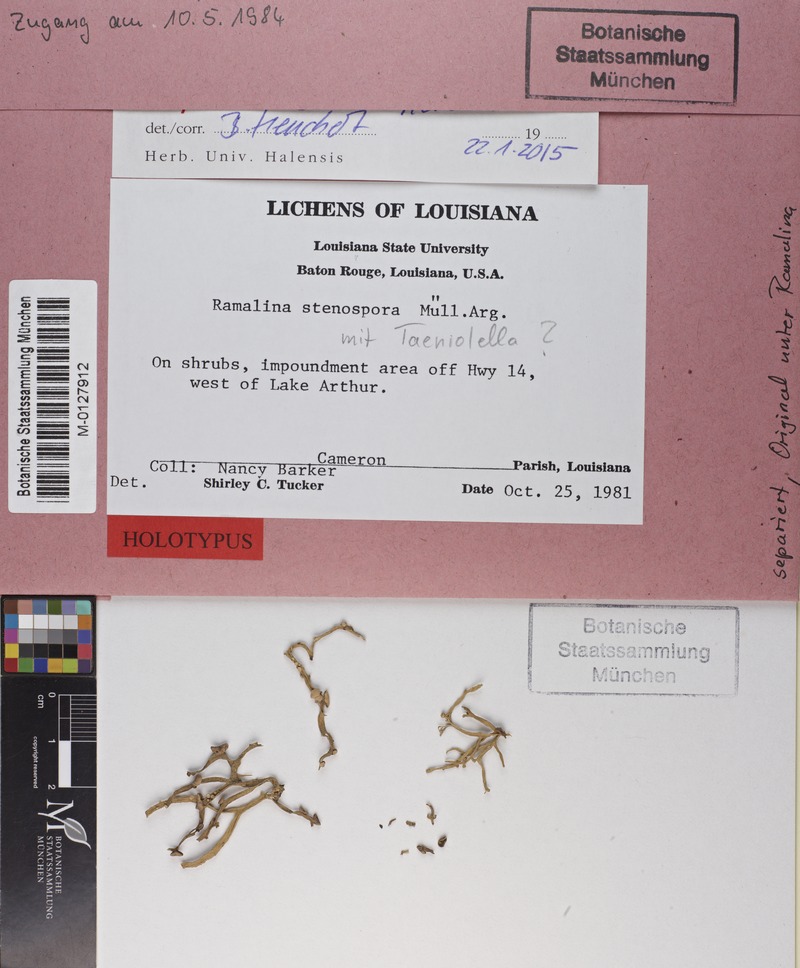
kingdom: Fungi
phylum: Ascomycota
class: Dothideomycetes
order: Pleosporales
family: Melanommataceae
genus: Sporidesmiella
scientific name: Sporidesmiella lichenophila
